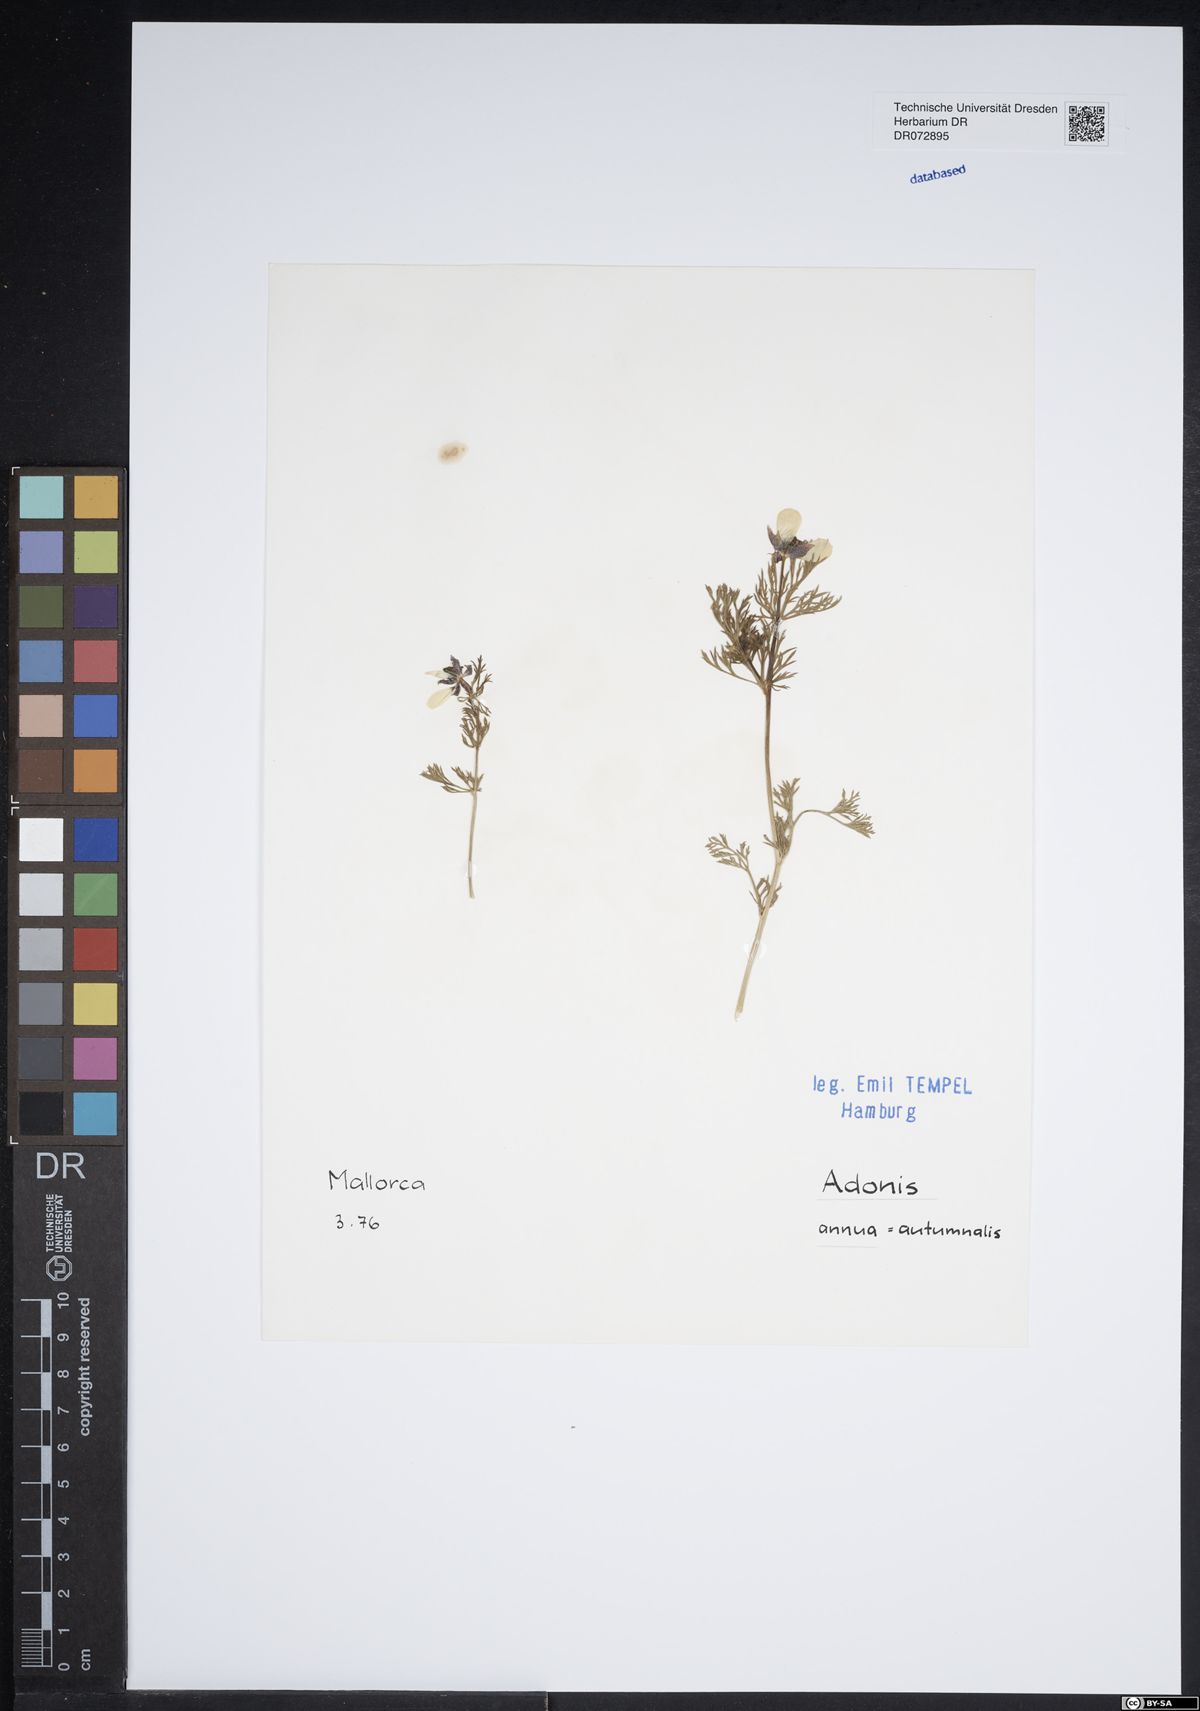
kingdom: Plantae
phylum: Tracheophyta
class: Magnoliopsida
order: Ranunculales
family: Ranunculaceae
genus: Adonis
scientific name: Adonis annua
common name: Pheasant's-eye
